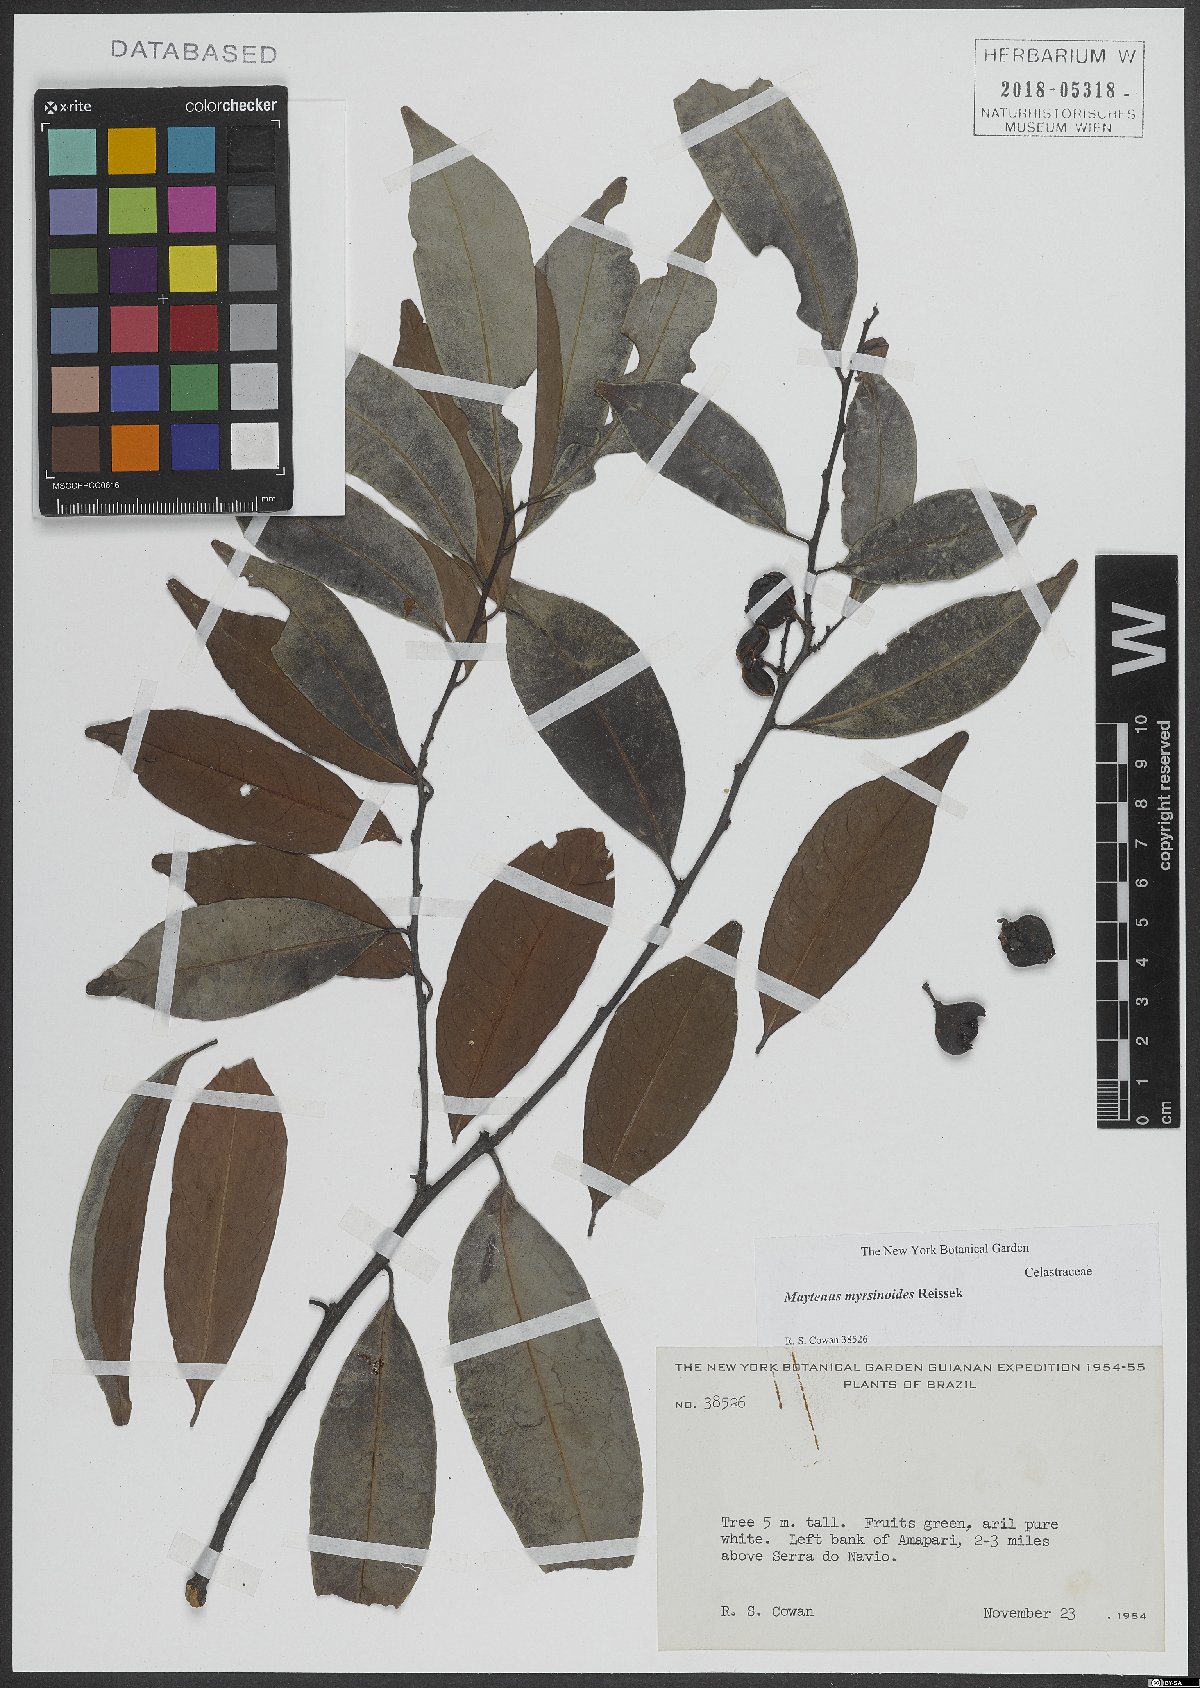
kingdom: Plantae
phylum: Tracheophyta
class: Magnoliopsida
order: Celastrales
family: Celastraceae
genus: Monteverdia
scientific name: Monteverdia myrsinoides
